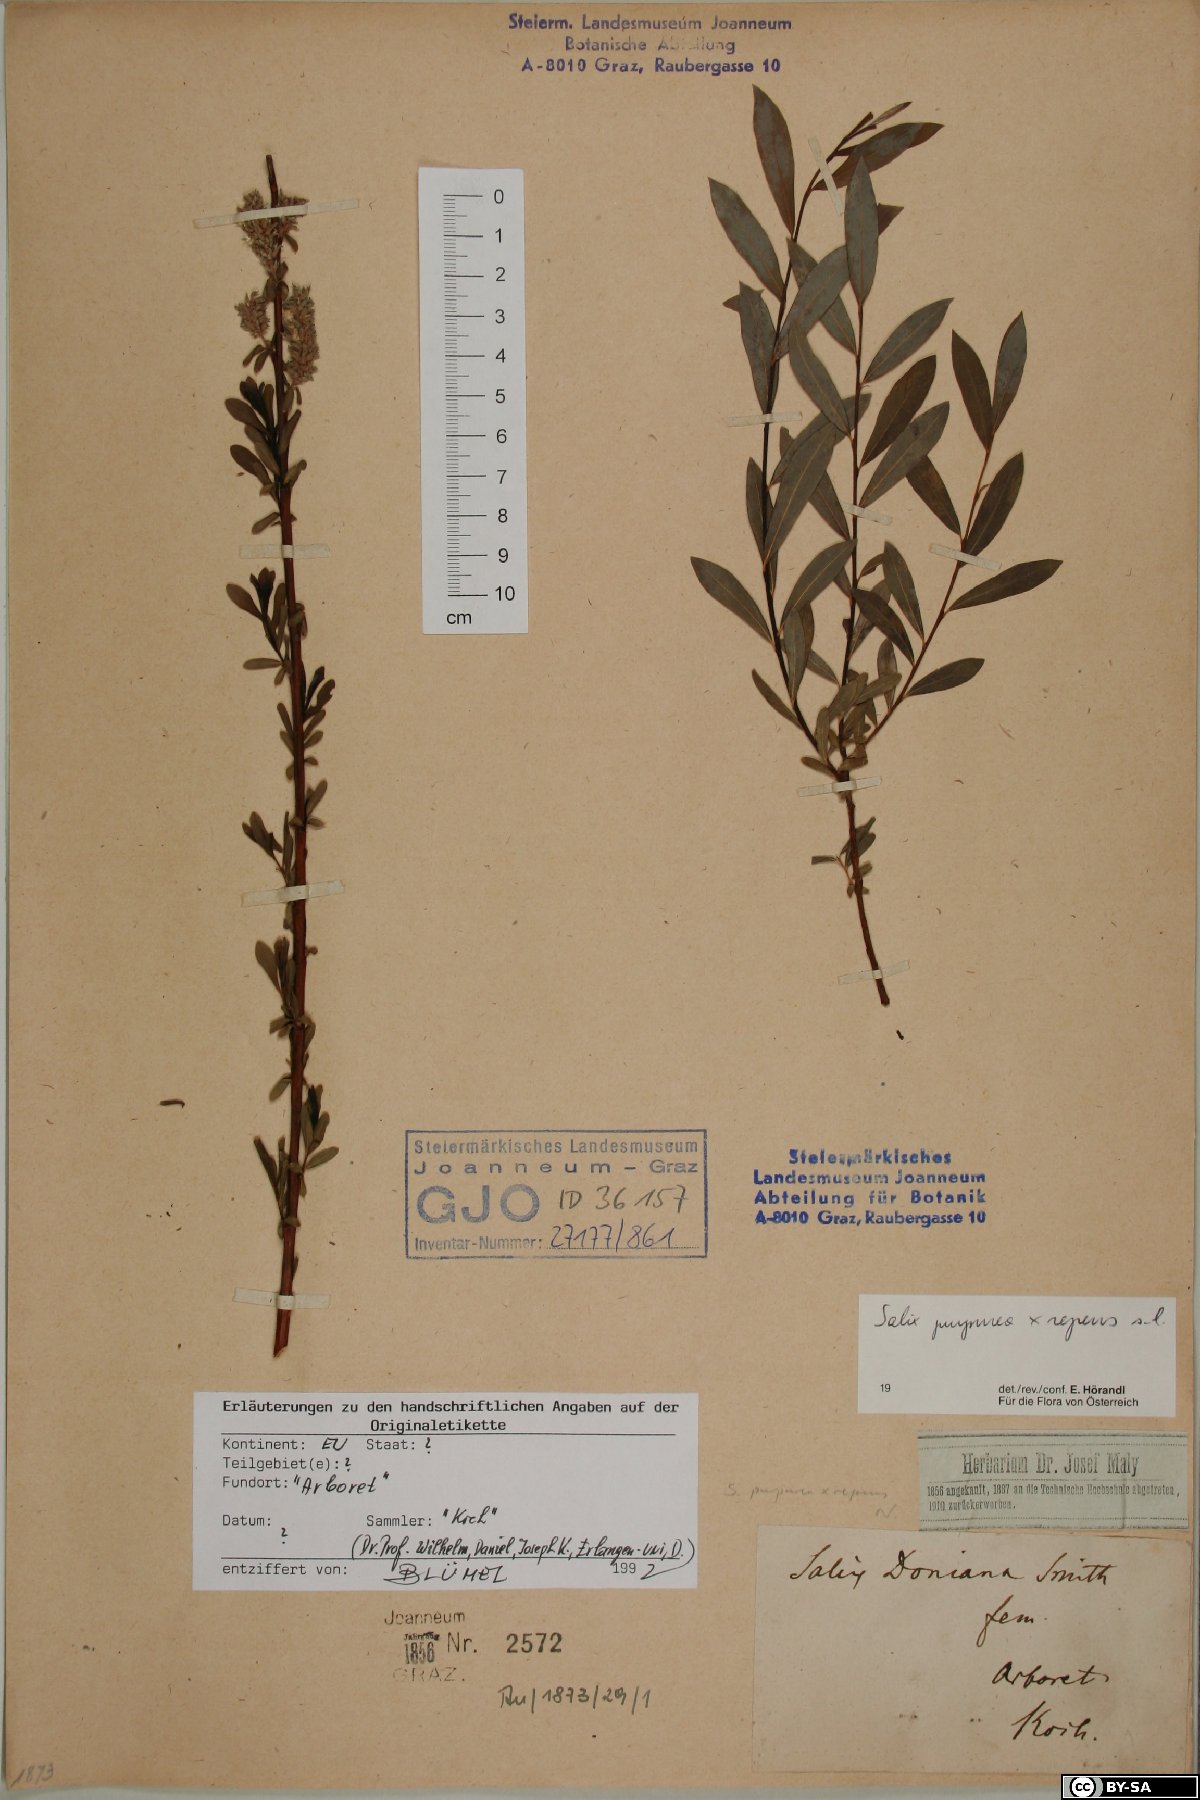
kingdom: Plantae
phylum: Tracheophyta
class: Magnoliopsida
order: Malpighiales
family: Salicaceae
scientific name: Salicaceae
